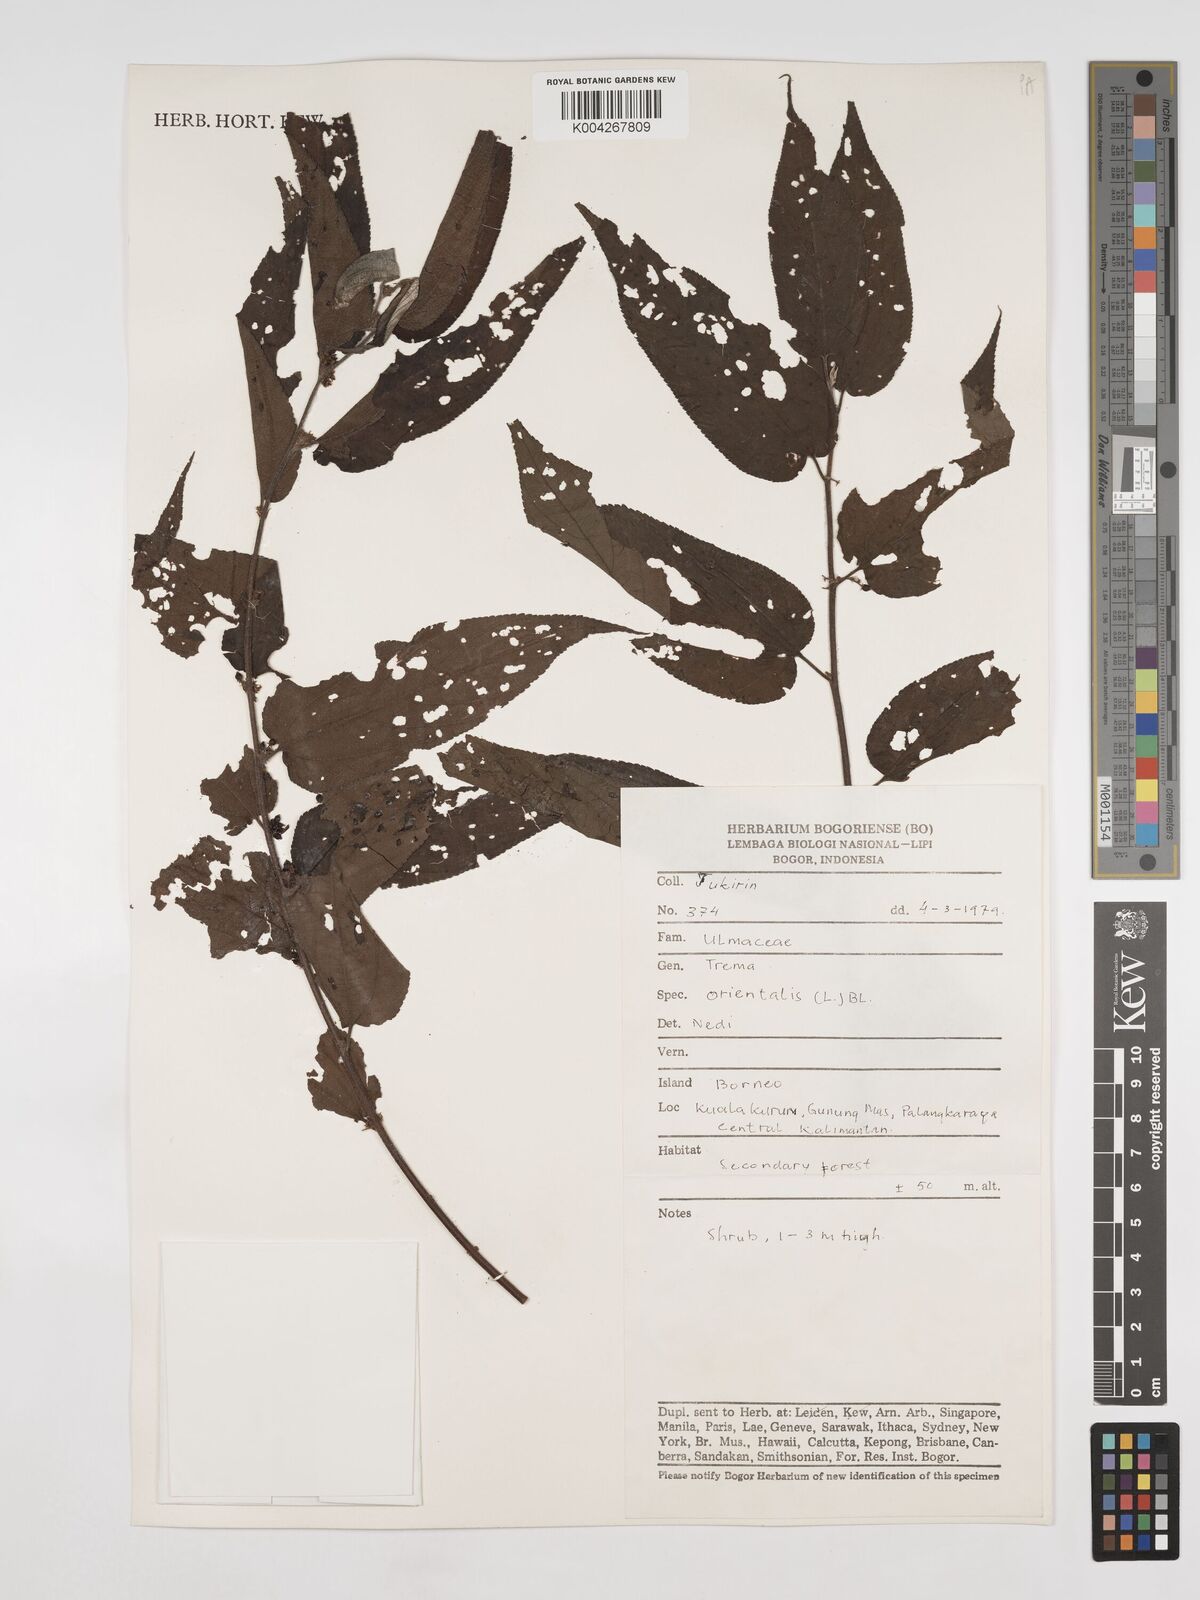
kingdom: Plantae
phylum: Tracheophyta
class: Magnoliopsida
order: Rosales
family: Cannabaceae
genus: Trema
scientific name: Trema orientale
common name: Indian charcoal tree
